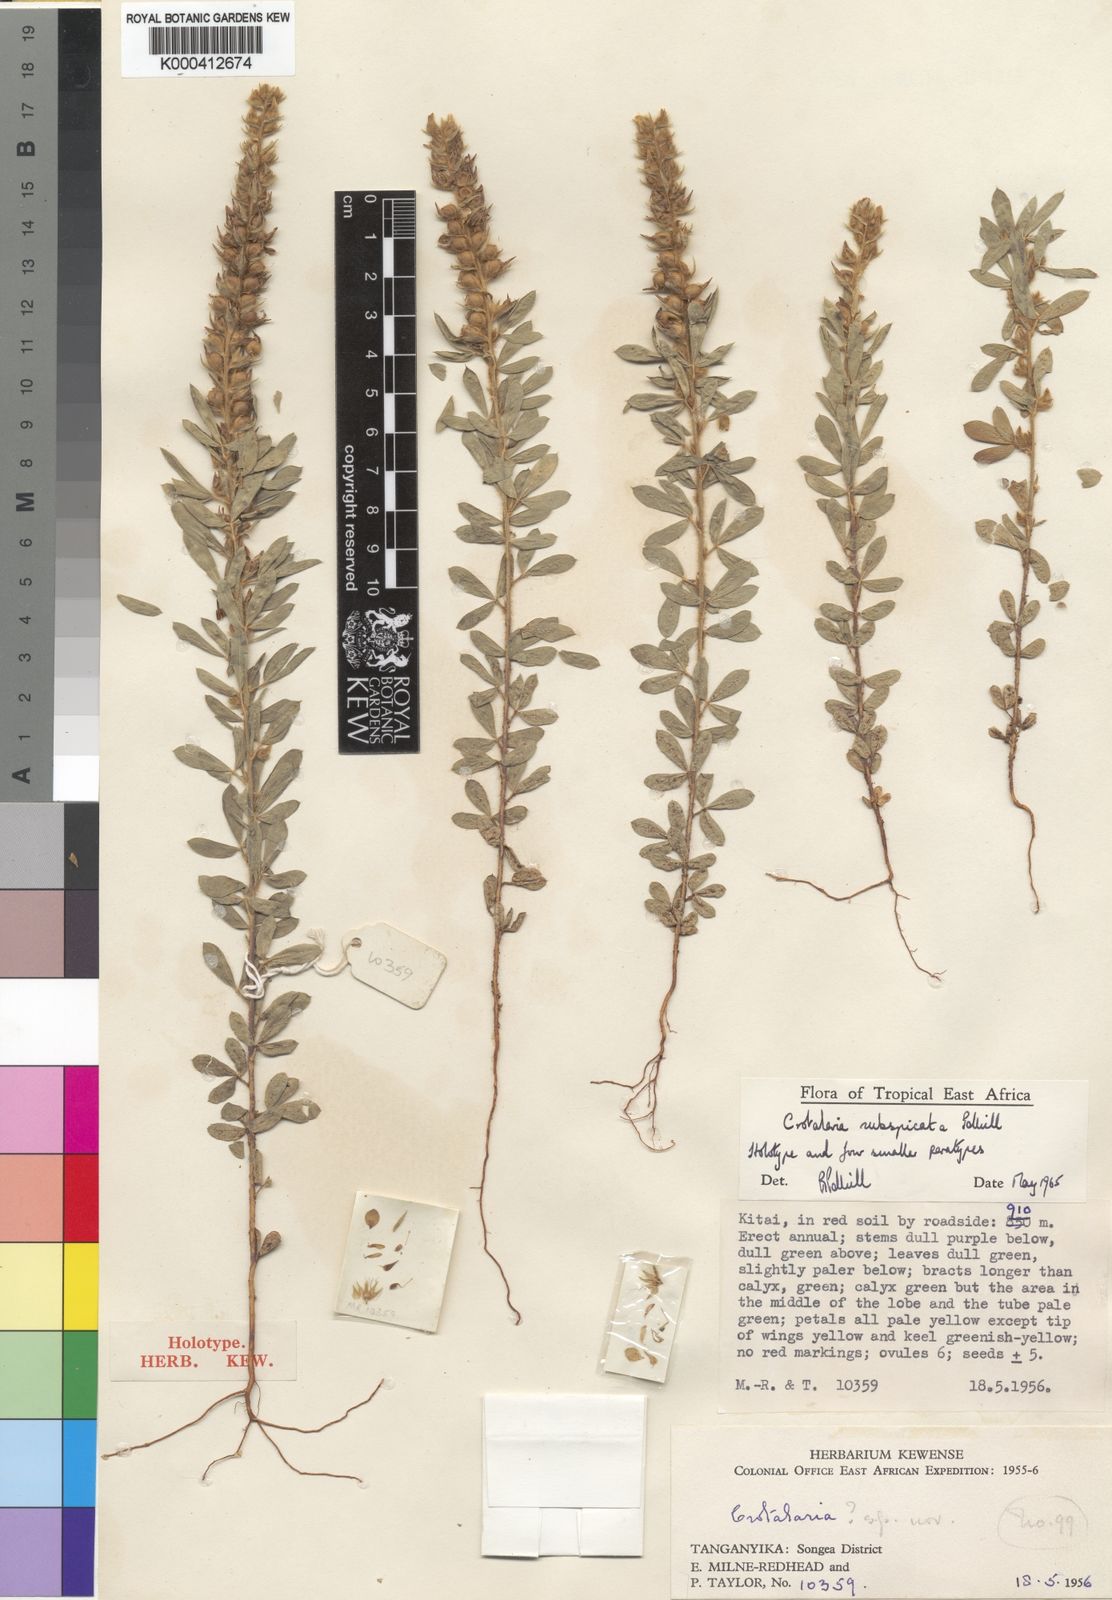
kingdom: Plantae
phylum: Tracheophyta
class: Magnoliopsida
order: Fabales
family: Fabaceae
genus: Crotalaria
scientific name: Crotalaria subspicata
